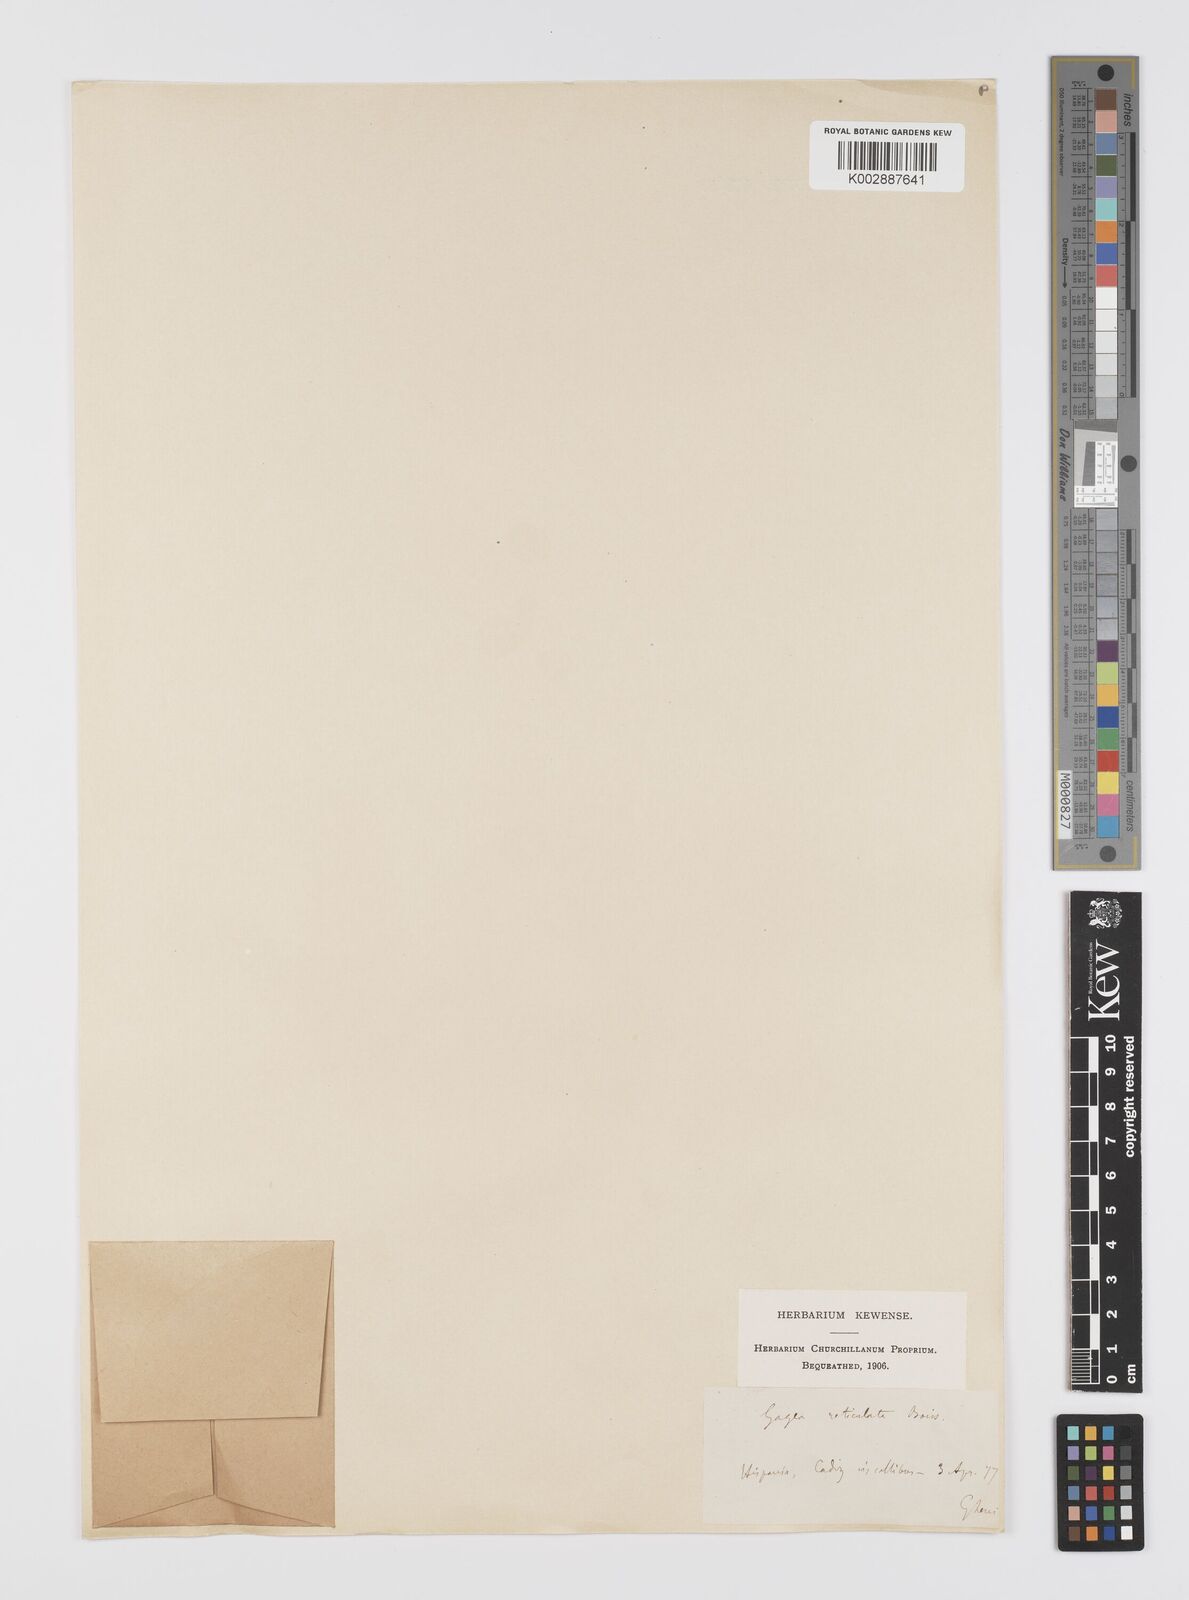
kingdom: Plantae
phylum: Tracheophyta
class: Liliopsida
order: Liliales
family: Liliaceae
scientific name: Liliaceae
